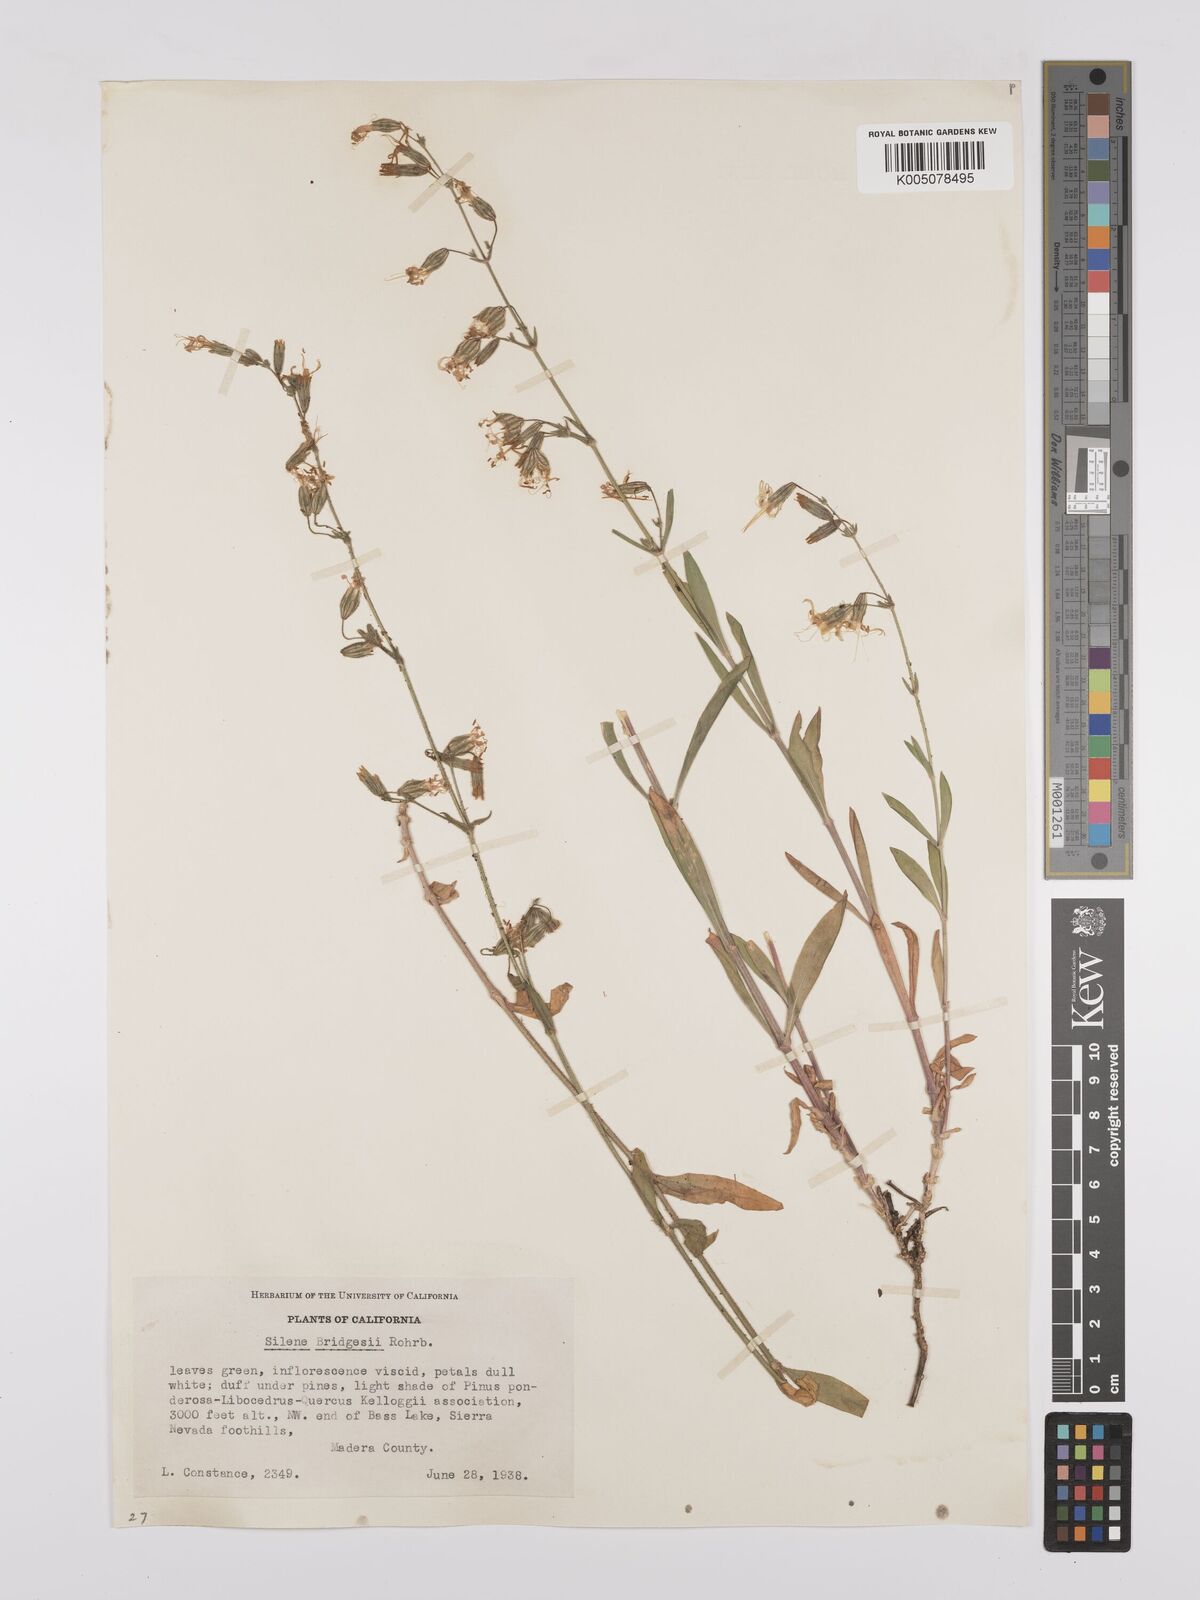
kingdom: Plantae
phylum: Tracheophyta
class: Magnoliopsida
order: Caryophyllales
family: Caryophyllaceae
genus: Silene
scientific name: Silene bridgesii
